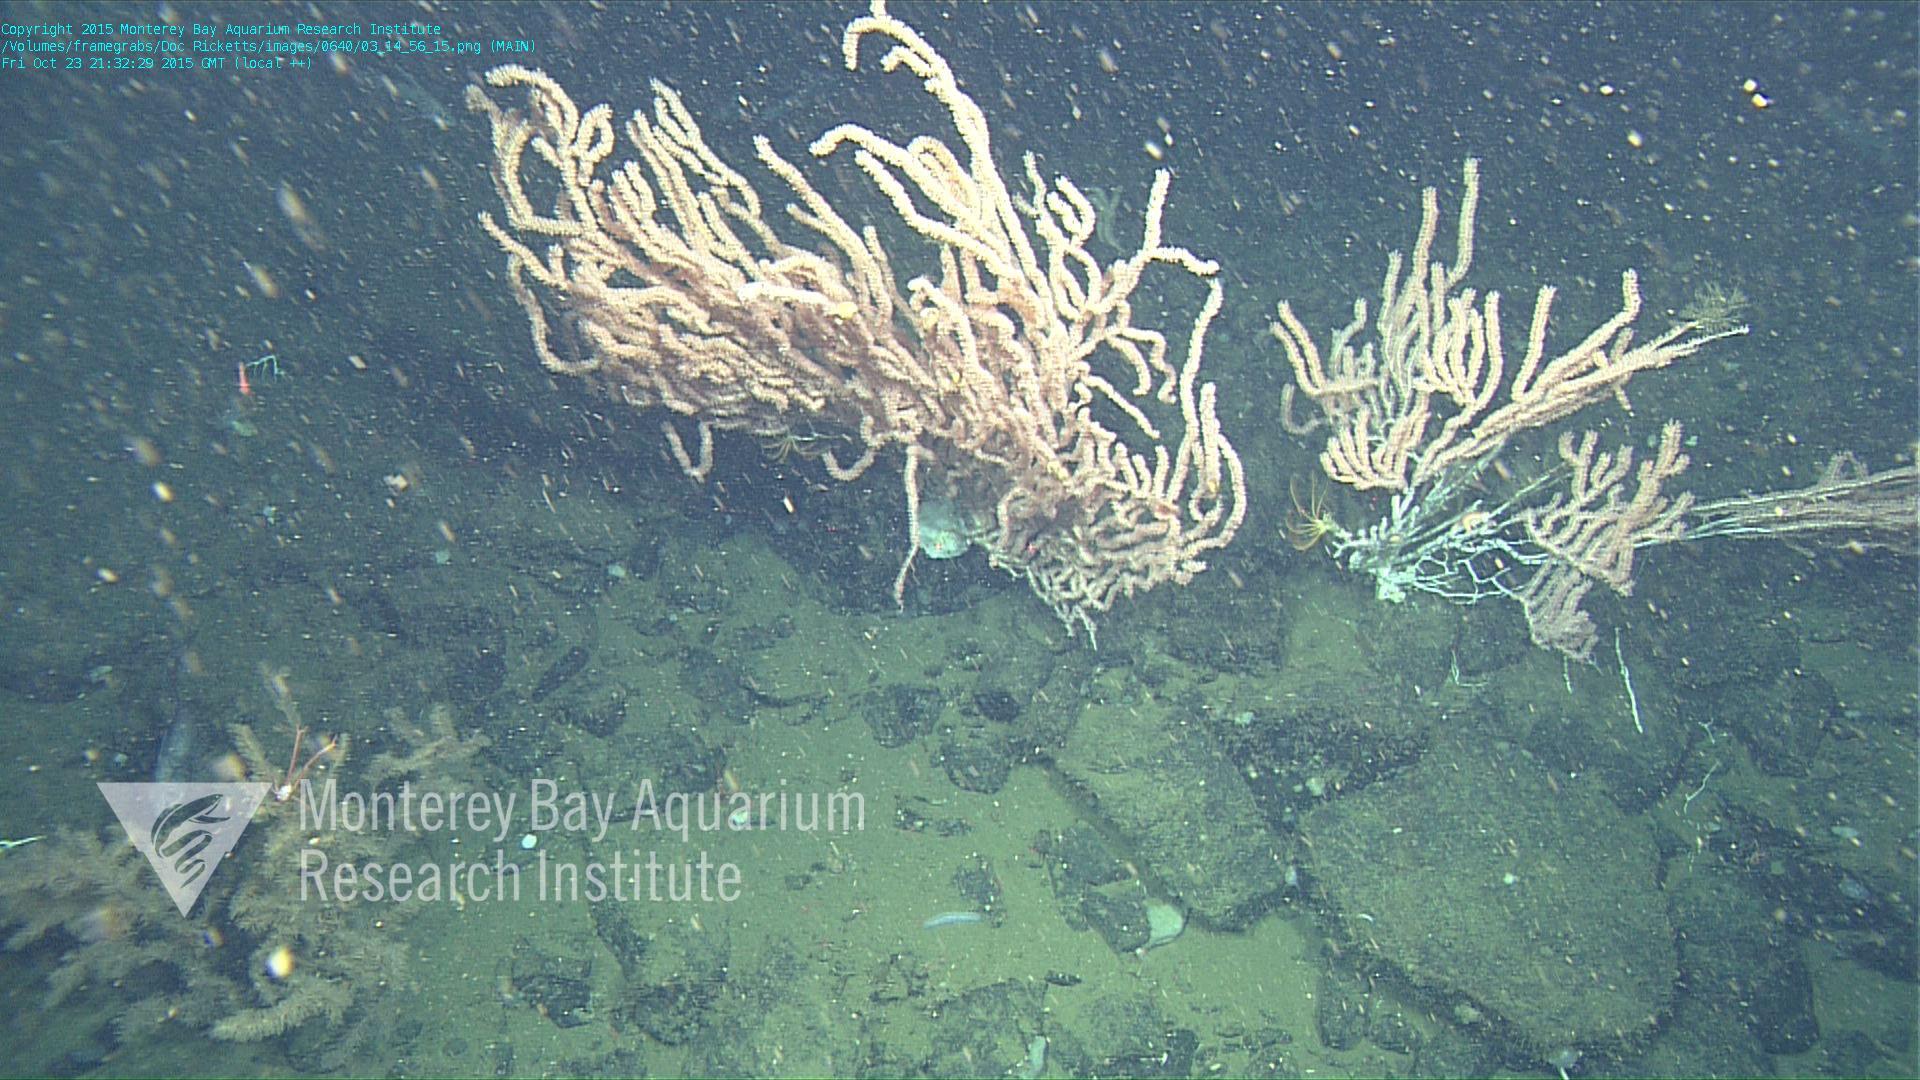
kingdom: Animalia
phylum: Cnidaria
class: Anthozoa
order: Scleralcyonacea
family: Keratoisididae
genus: Keratoisis
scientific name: Keratoisis
